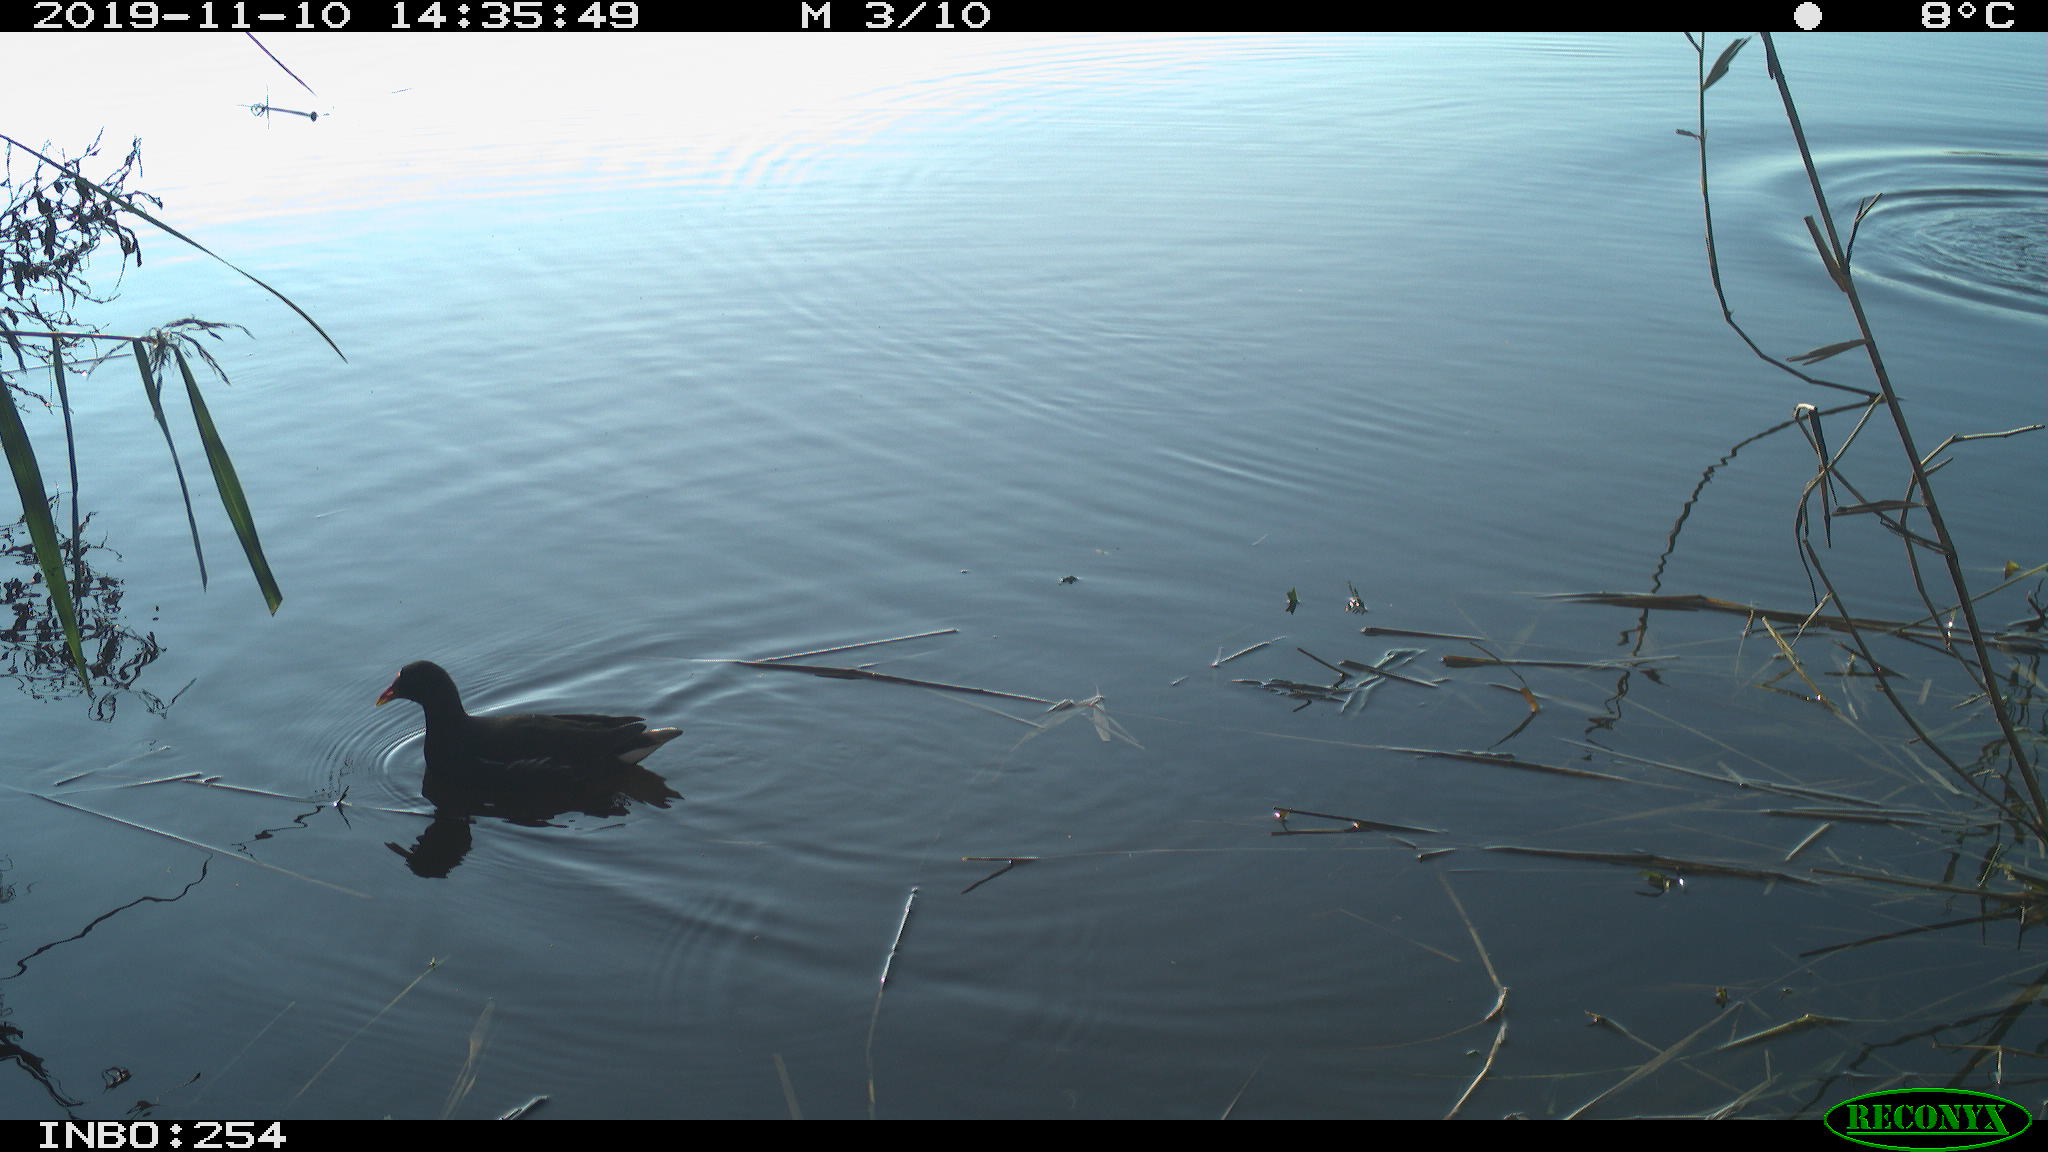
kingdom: Animalia
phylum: Chordata
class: Aves
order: Gruiformes
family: Rallidae
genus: Gallinula
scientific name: Gallinula chloropus
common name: Common moorhen
